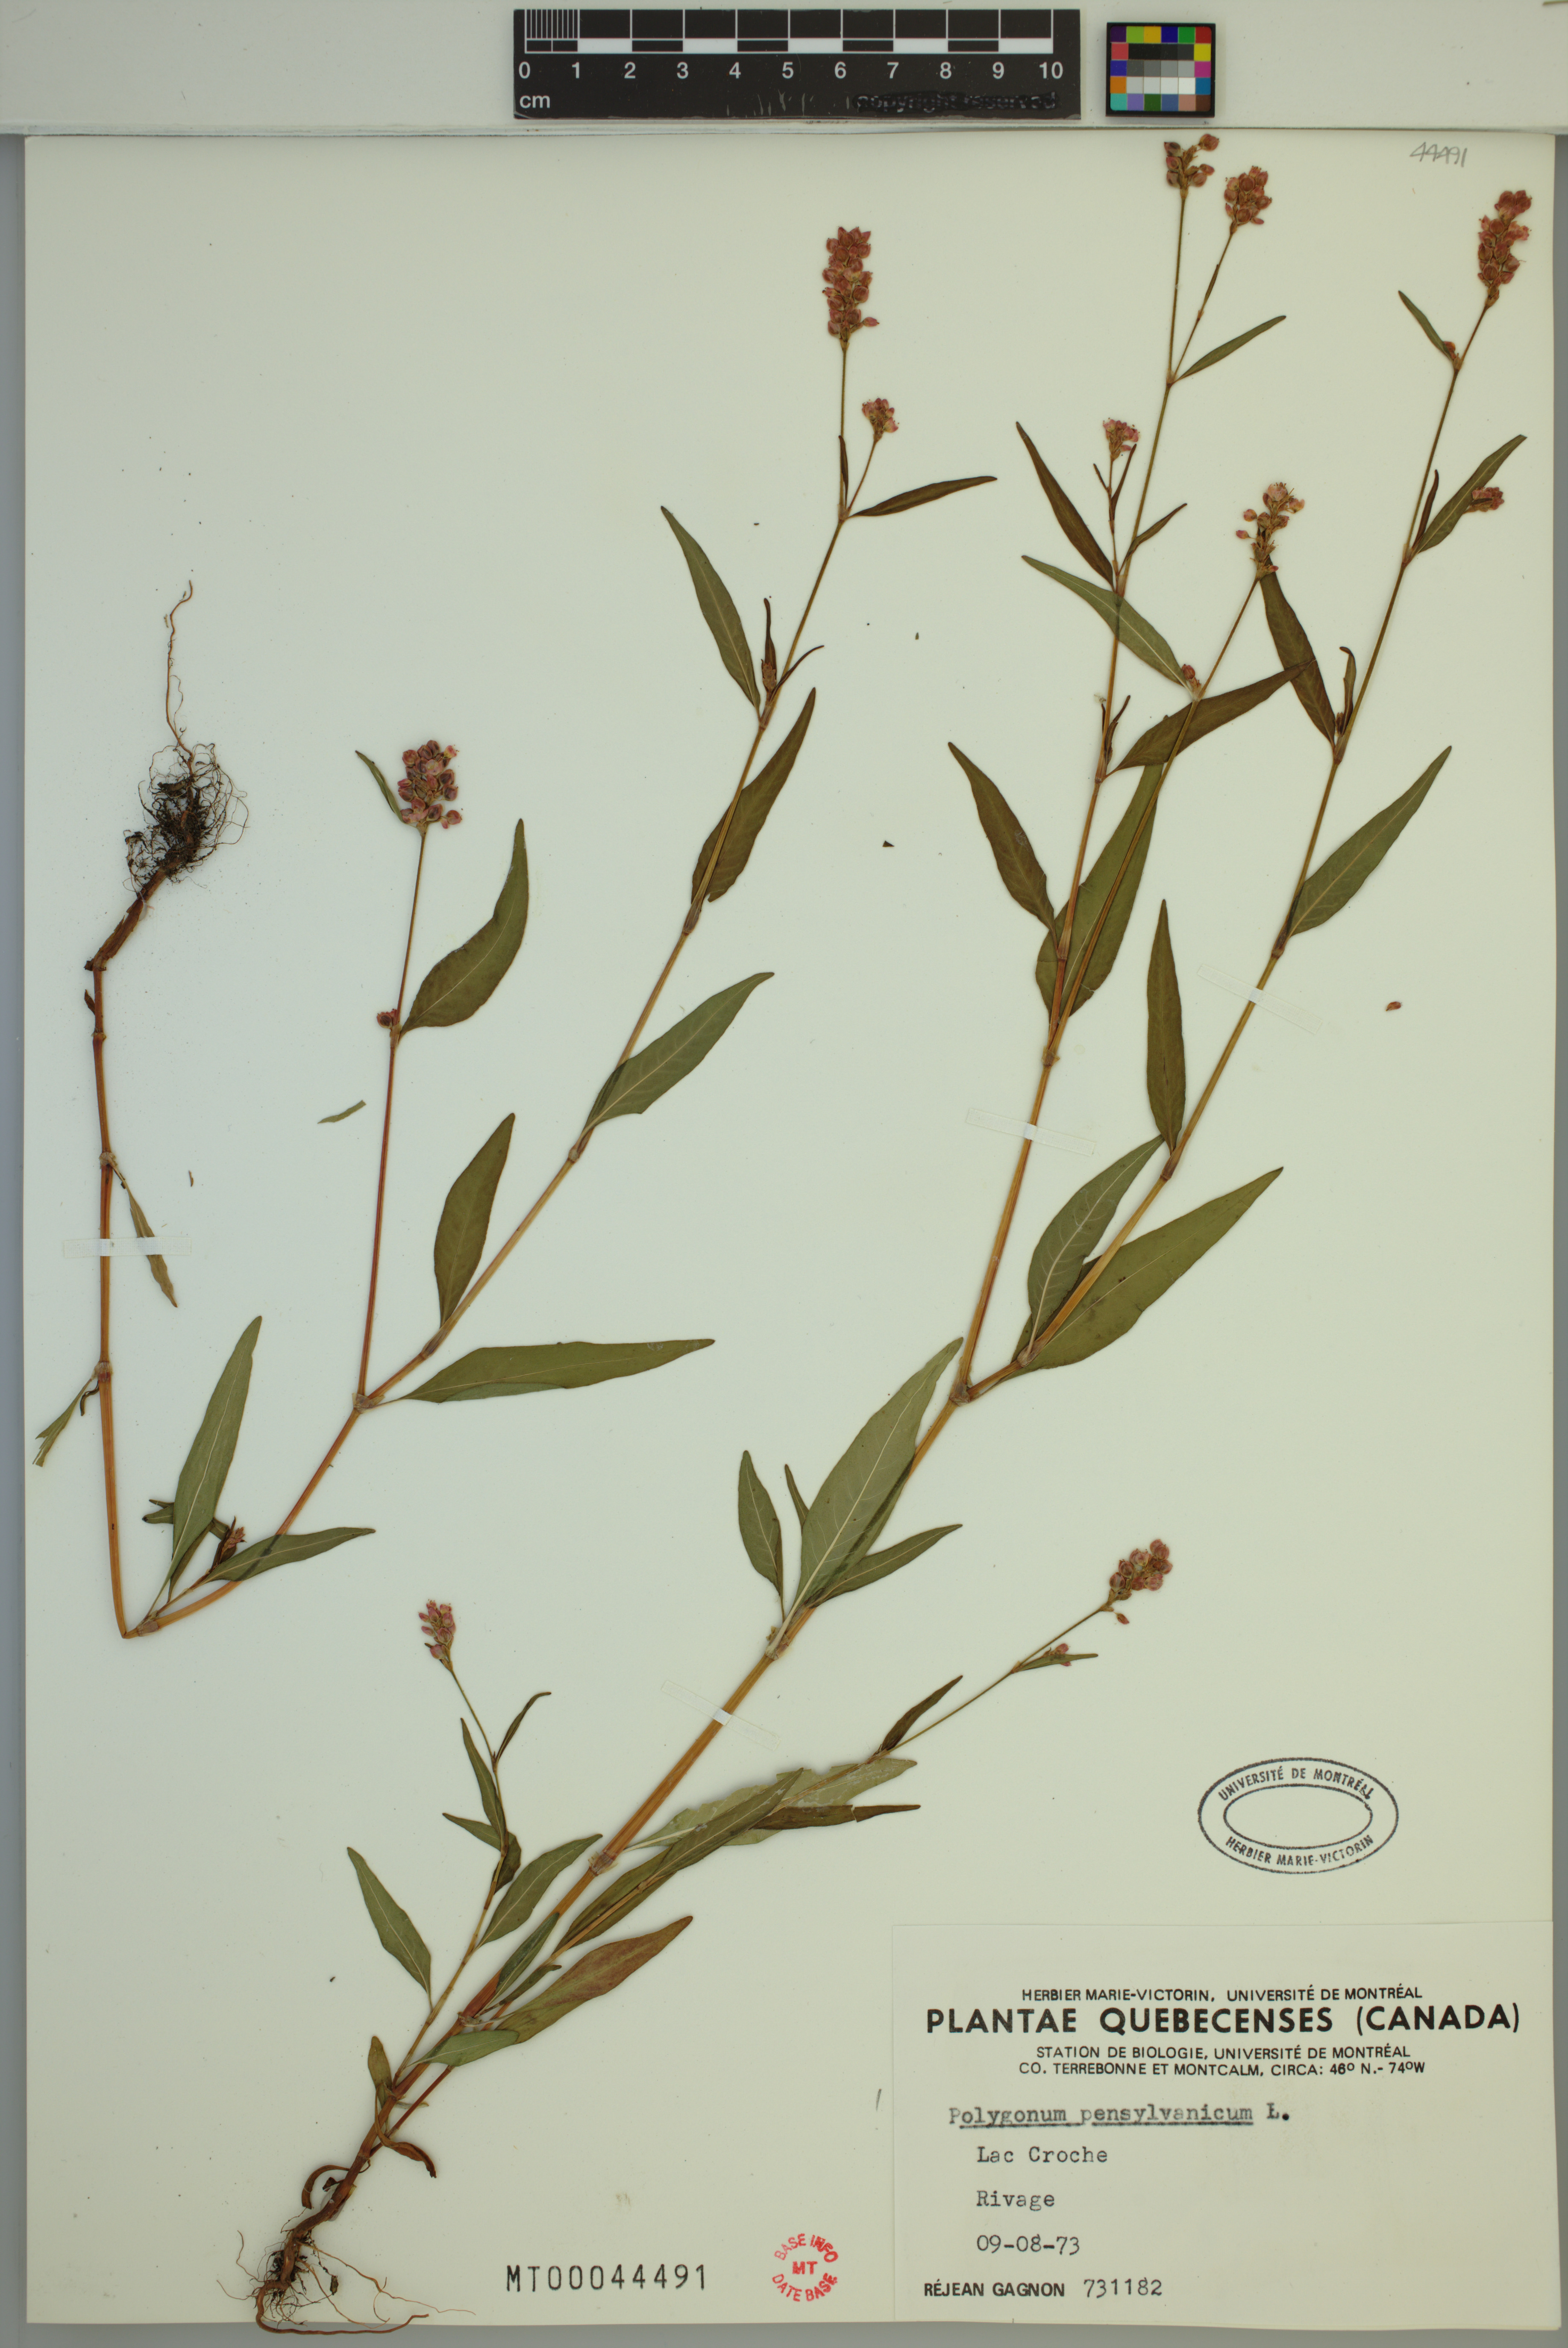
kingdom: Plantae
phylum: Tracheophyta
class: Magnoliopsida
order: Caryophyllales
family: Polygonaceae
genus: Persicaria
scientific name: Persicaria pensylvanica
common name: Pinkweed
